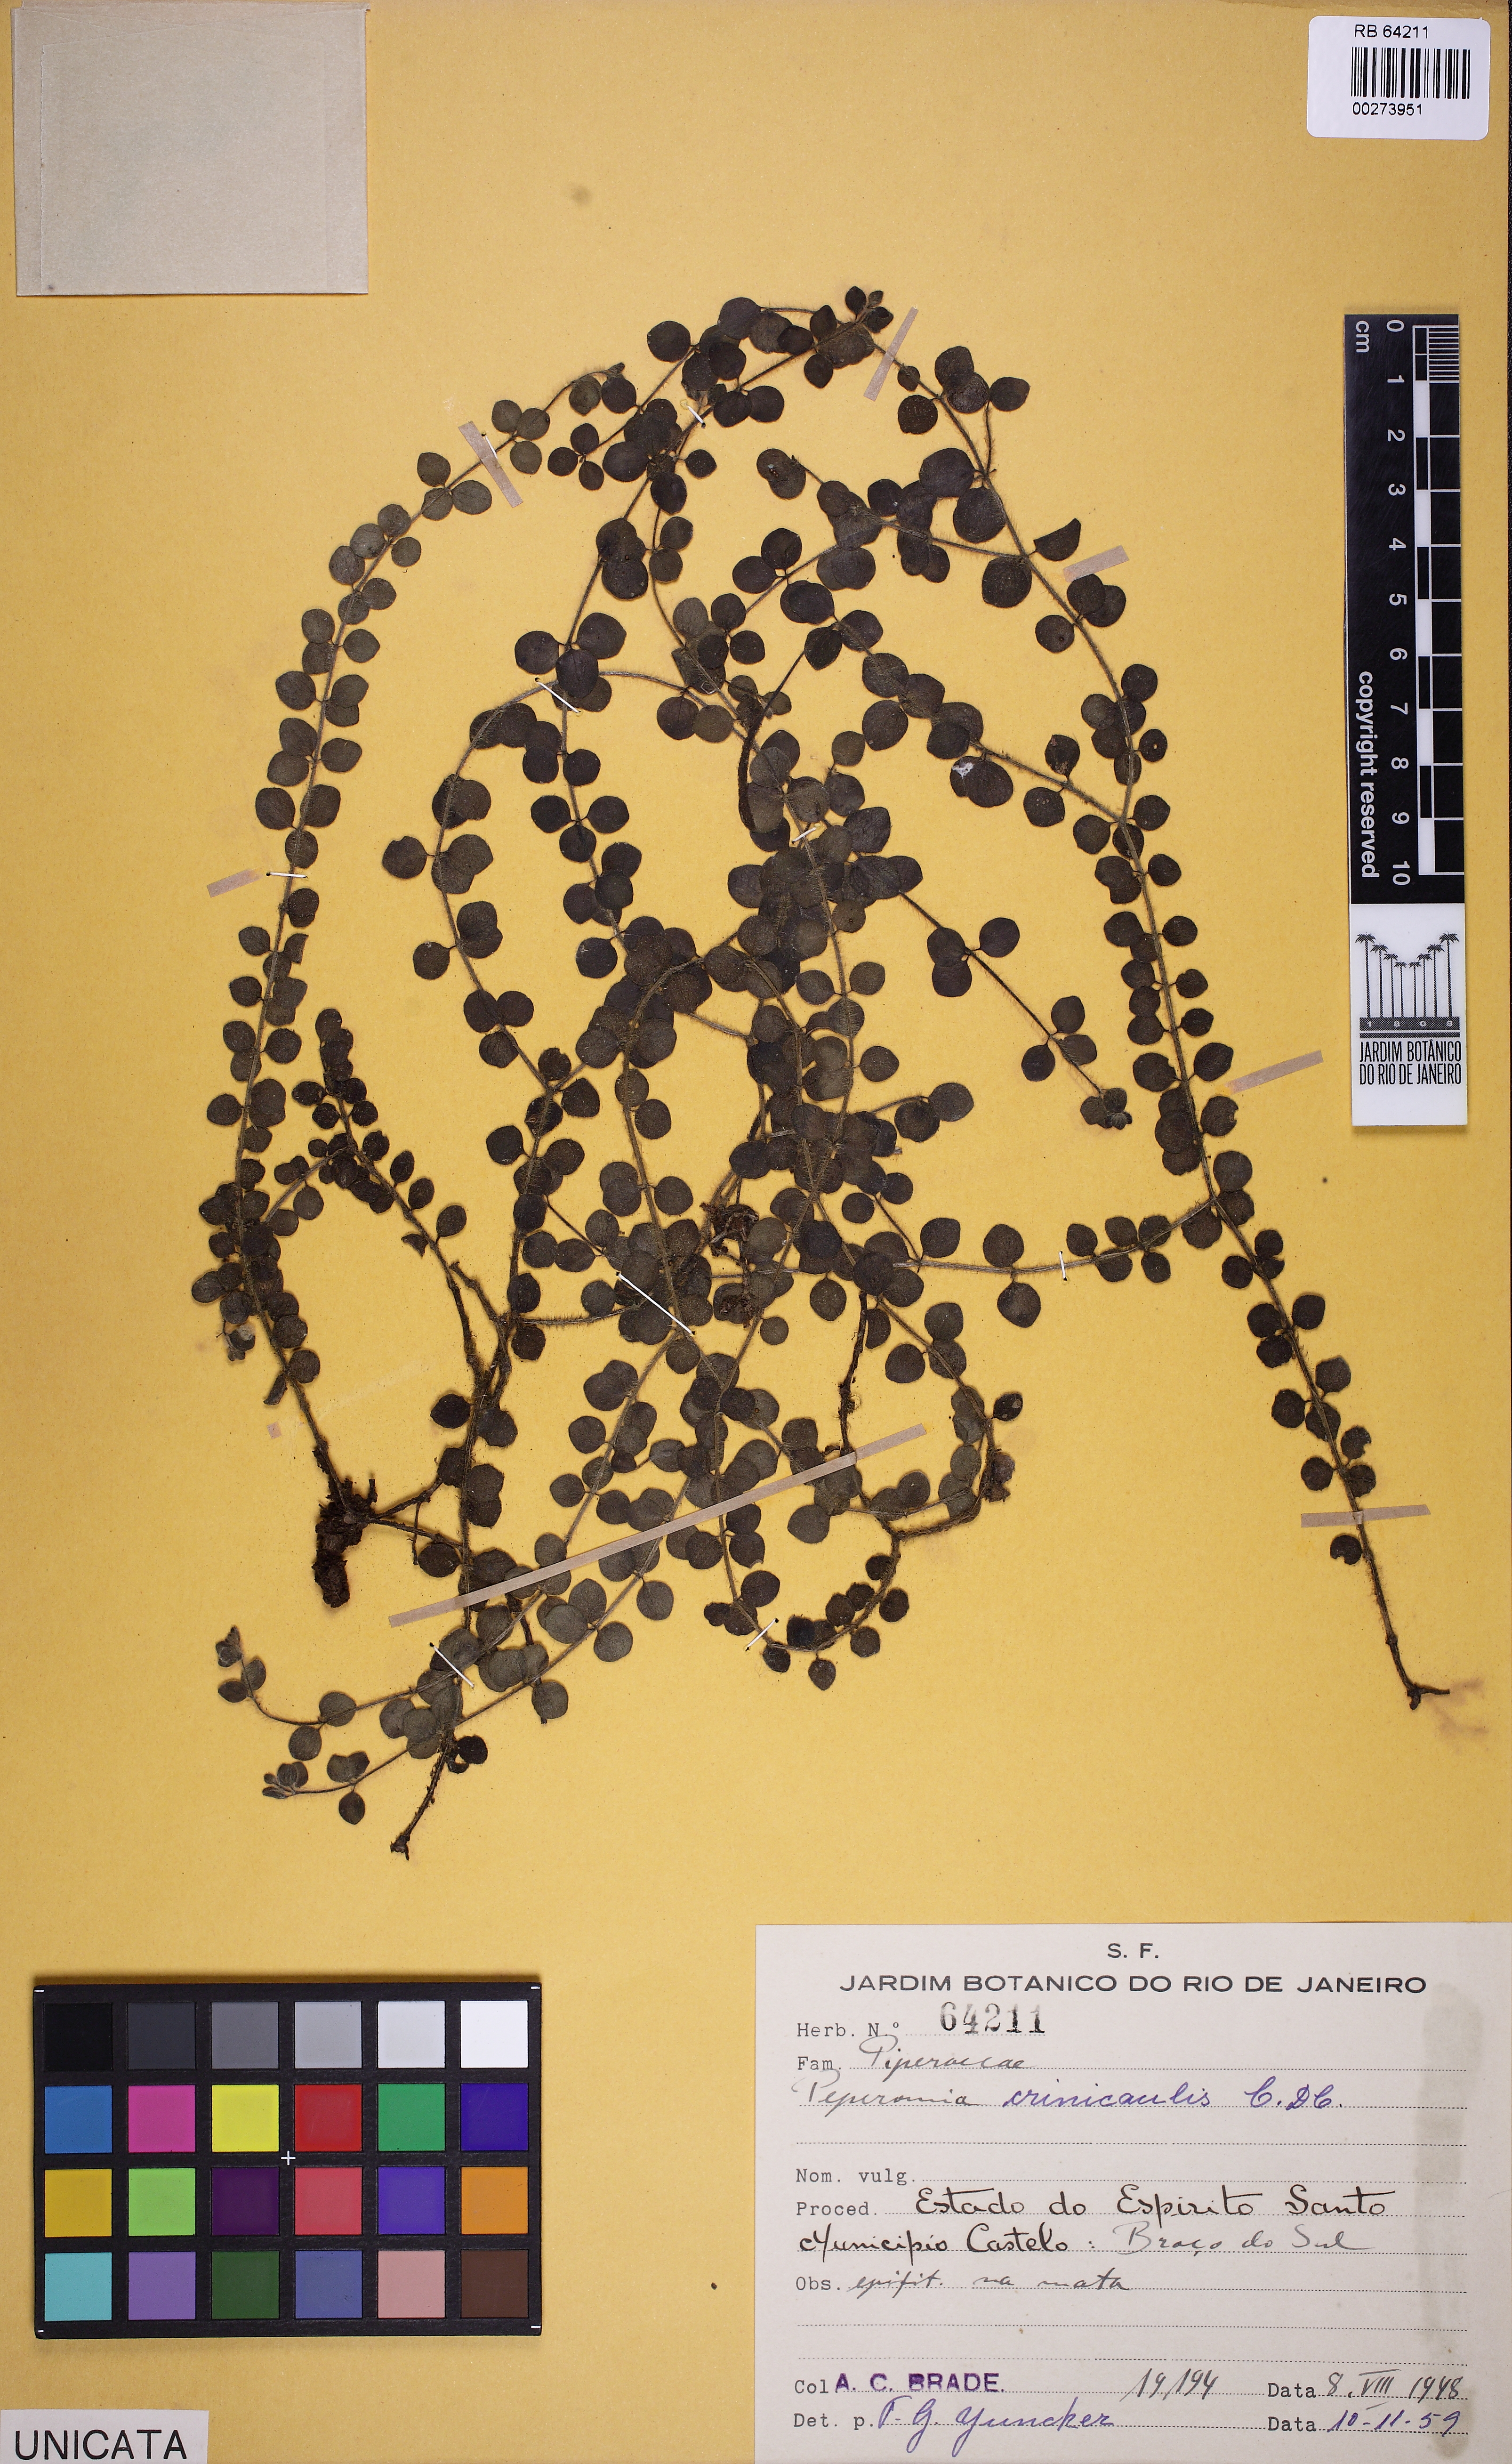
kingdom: Plantae
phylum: Tracheophyta
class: Magnoliopsida
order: Piperales
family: Piperaceae
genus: Peperomia
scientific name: Peperomia crinicaulis
